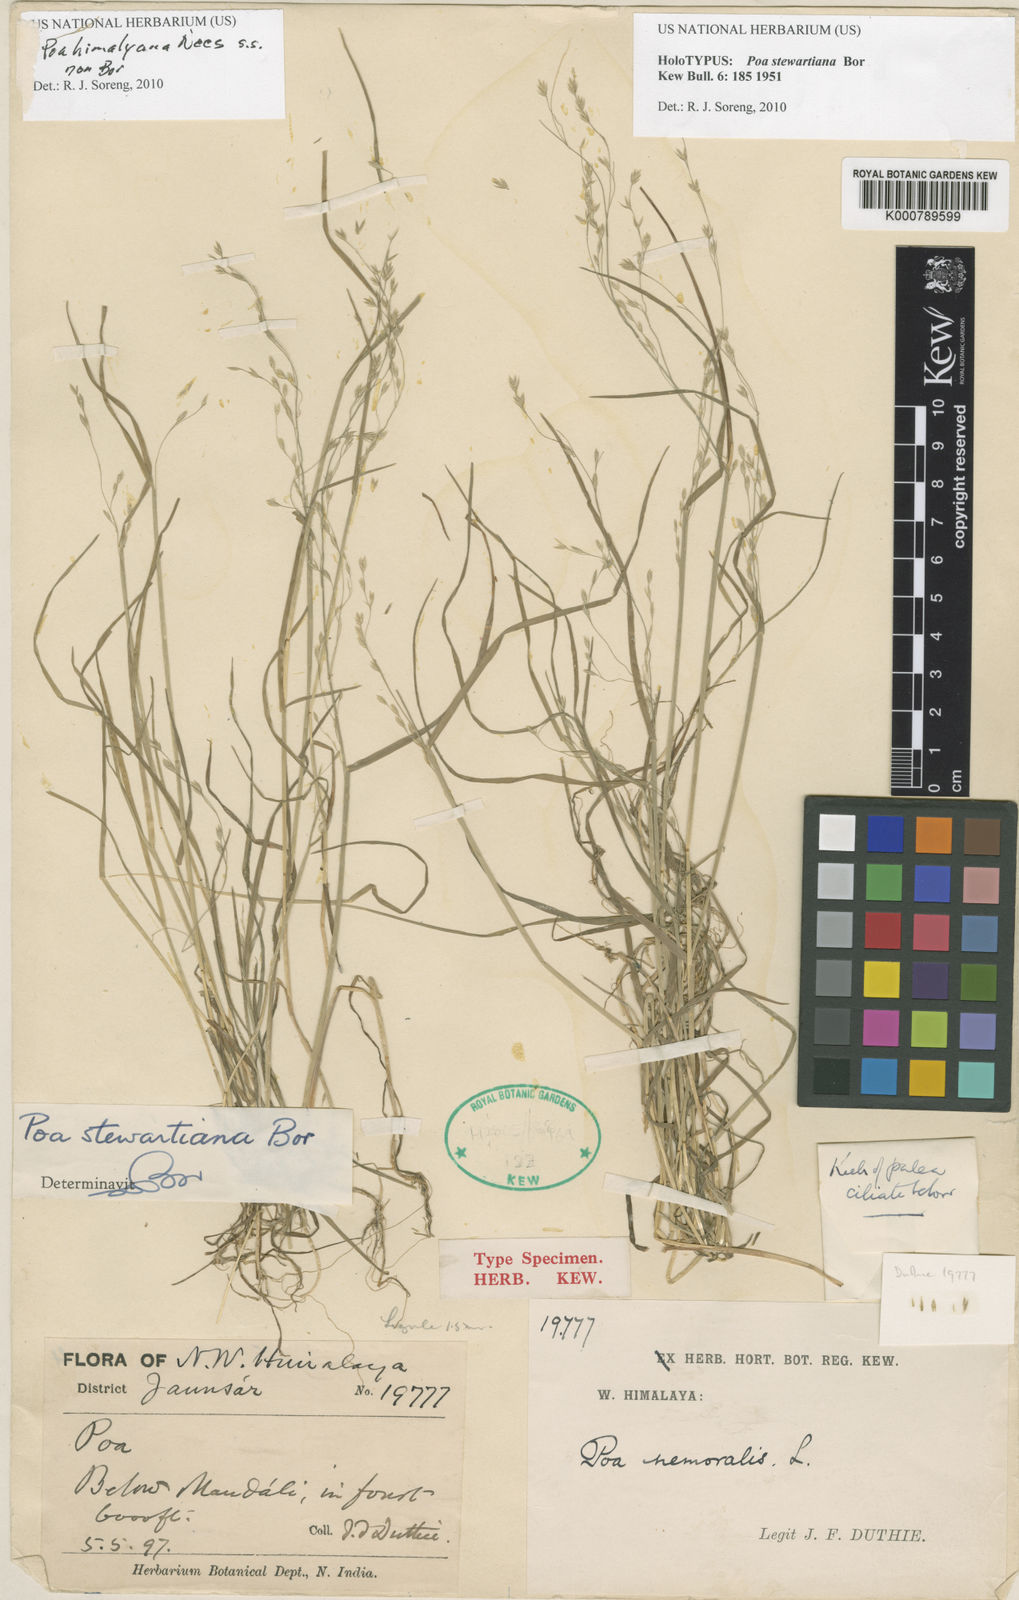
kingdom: Plantae
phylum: Tracheophyta
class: Liliopsida
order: Poales
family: Poaceae
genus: Poa
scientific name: Poa himalayana
